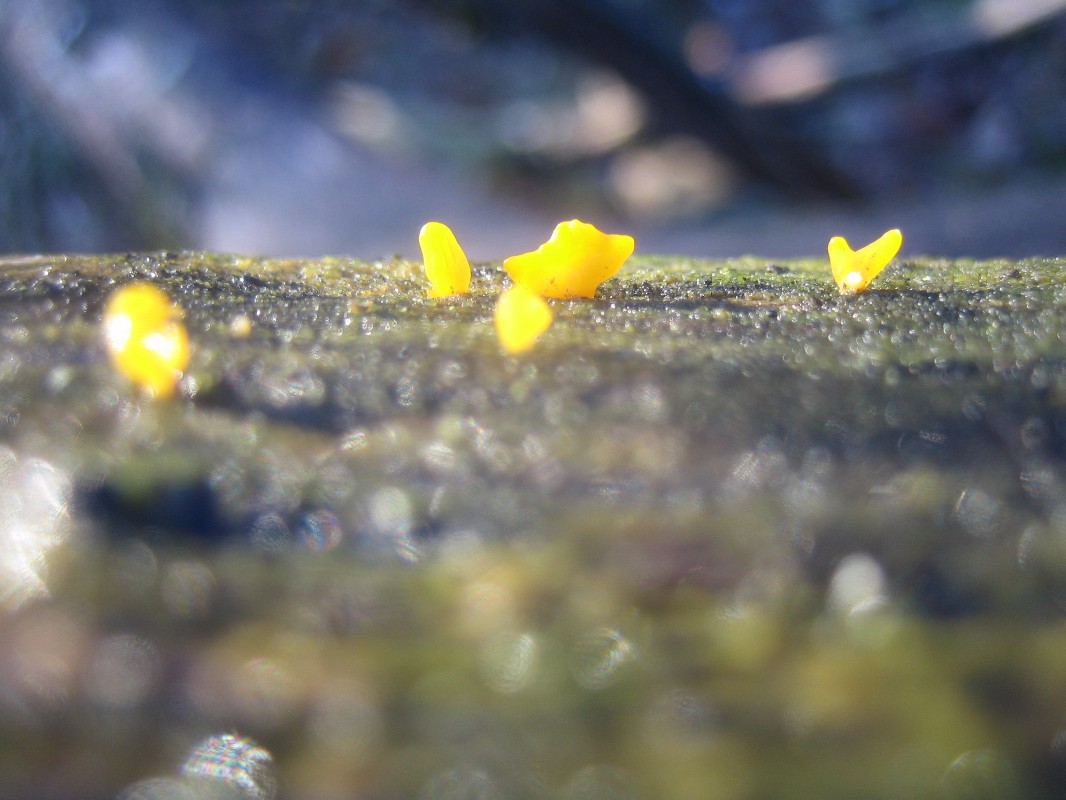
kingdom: Fungi
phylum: Basidiomycota
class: Dacrymycetes
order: Dacrymycetales
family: Dacrymycetaceae
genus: Calocera
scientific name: Calocera cornea
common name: liden guldgaffel
